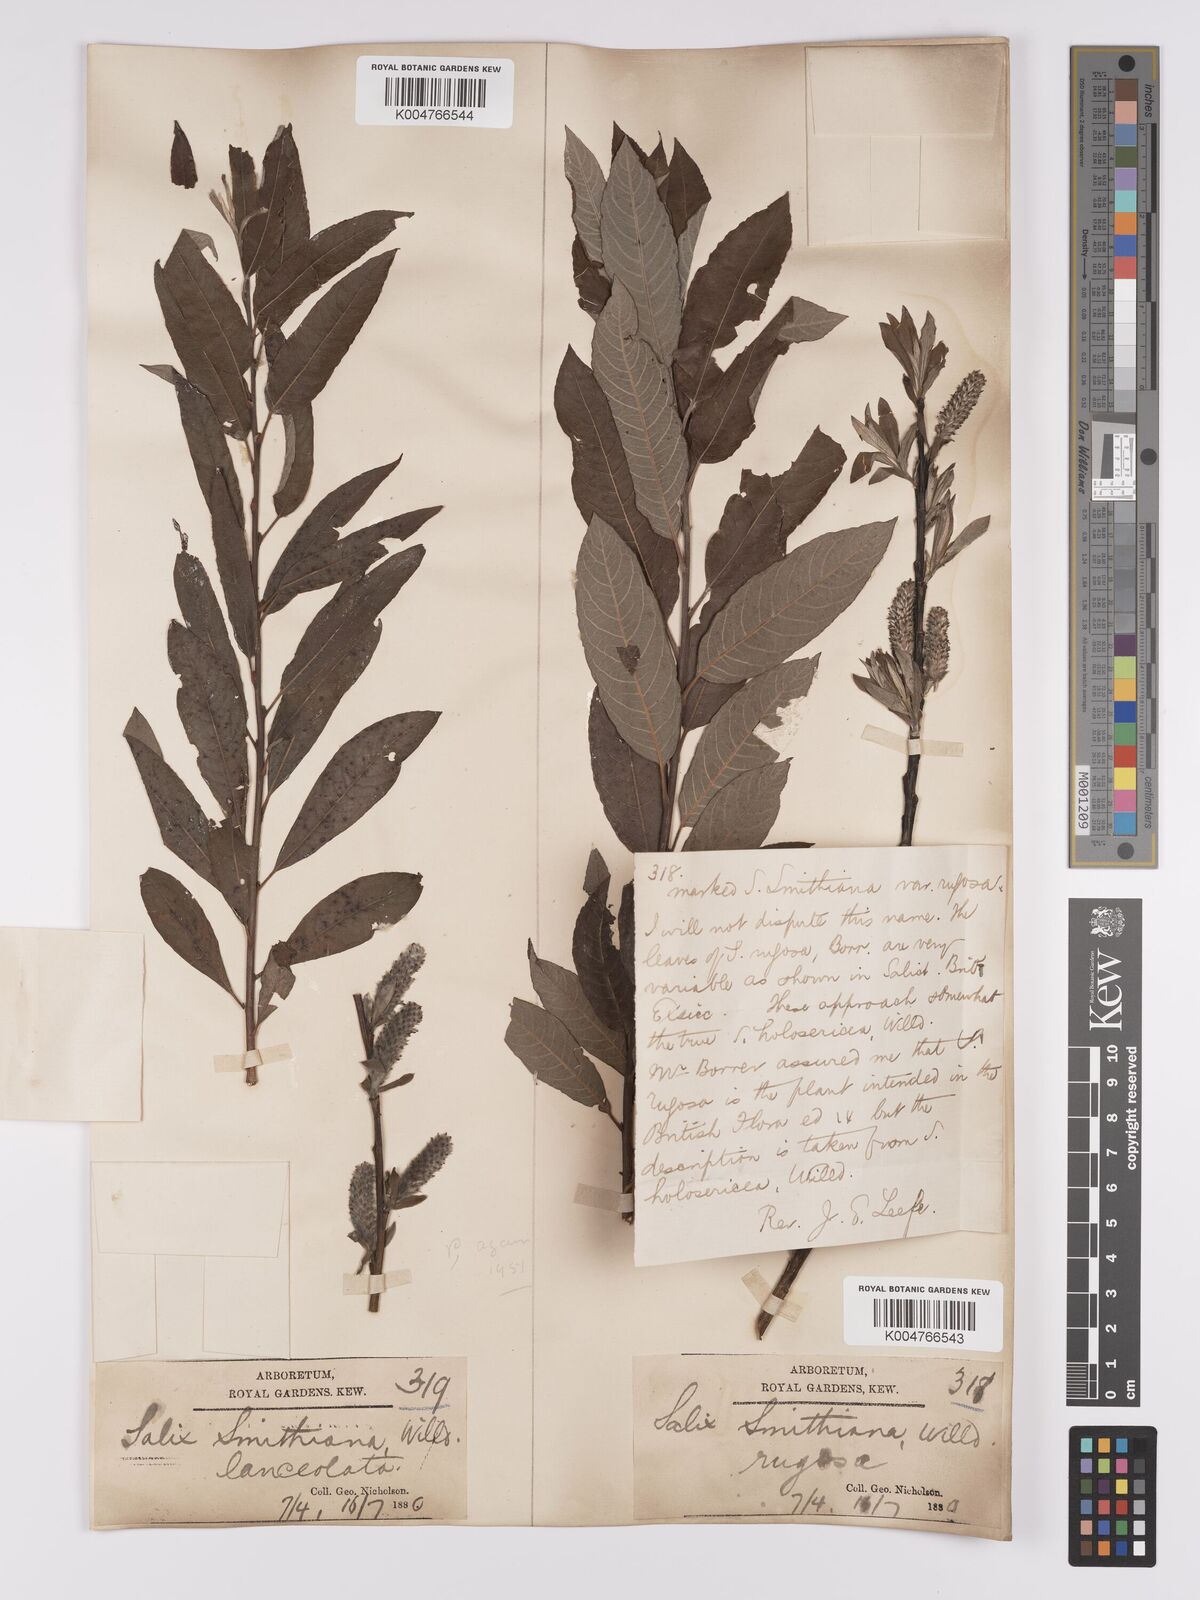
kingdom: Plantae
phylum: Tracheophyta
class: Magnoliopsida
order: Malpighiales
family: Salicaceae
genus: Salix
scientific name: Salix caprea
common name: Goat willow
